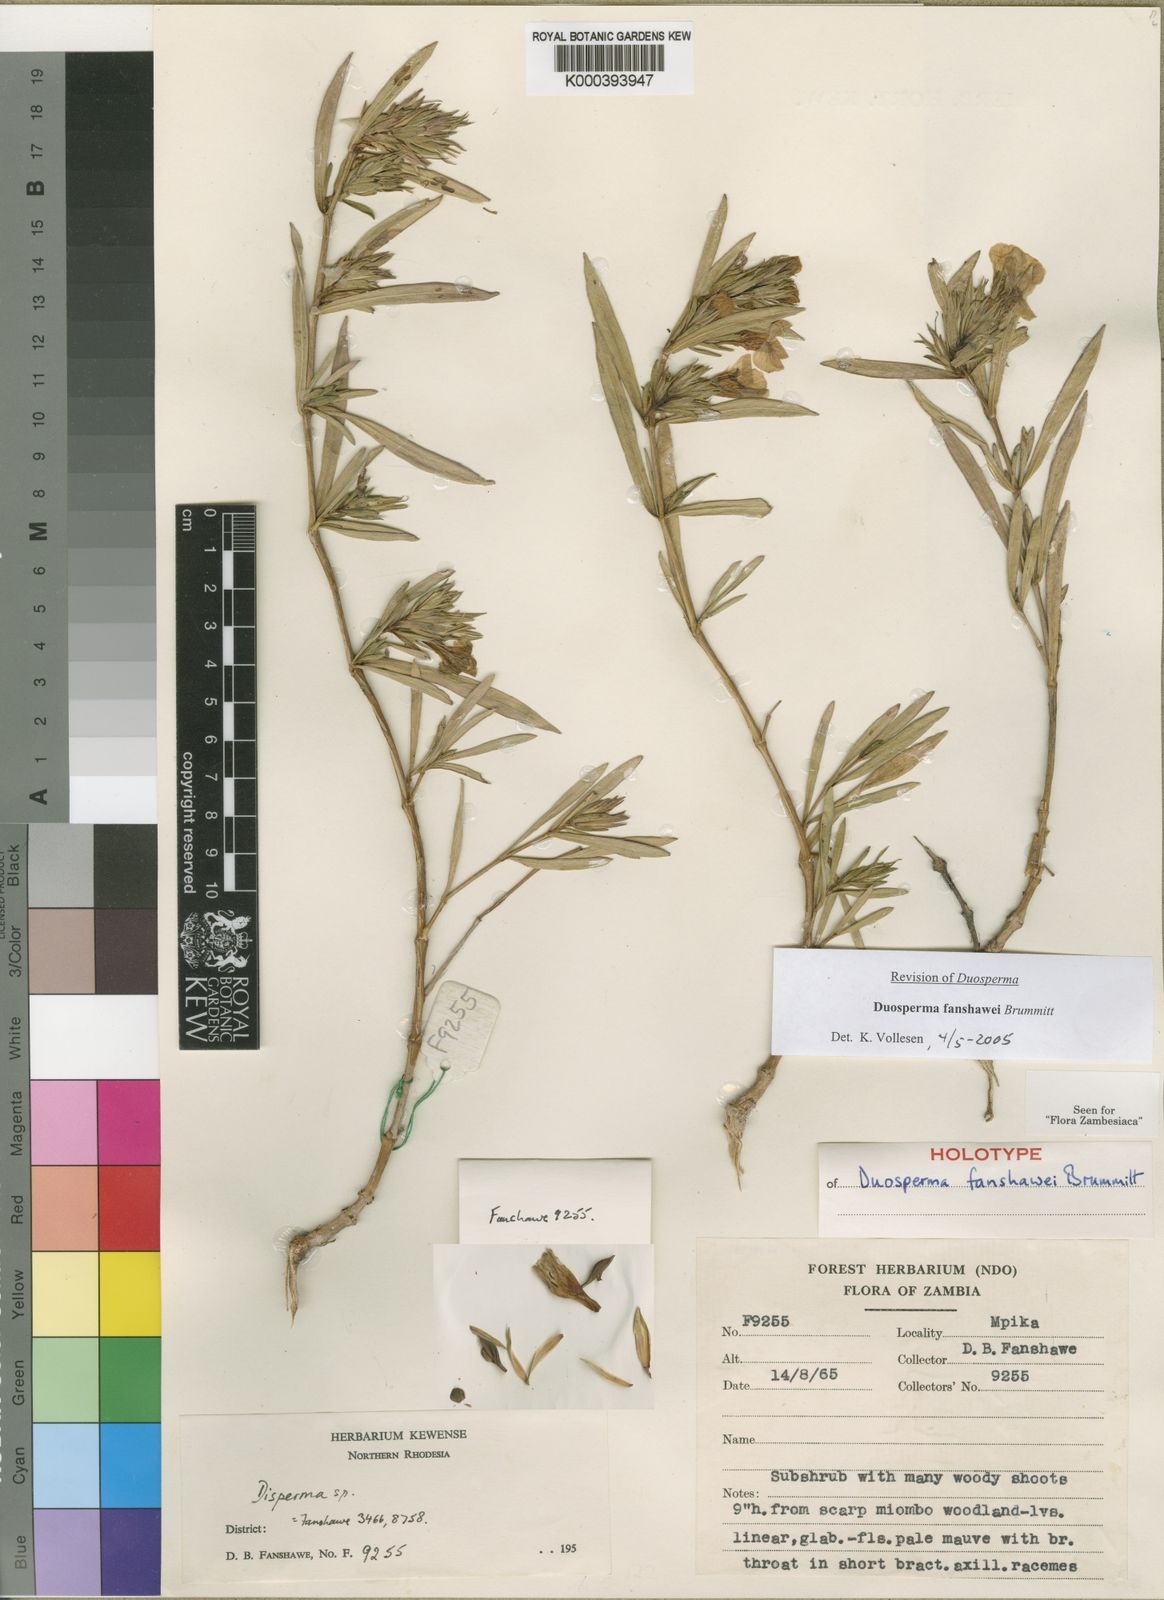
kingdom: Plantae
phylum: Tracheophyta
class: Magnoliopsida
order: Lamiales
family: Acanthaceae
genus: Duosperma
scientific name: Duosperma fanshawei
